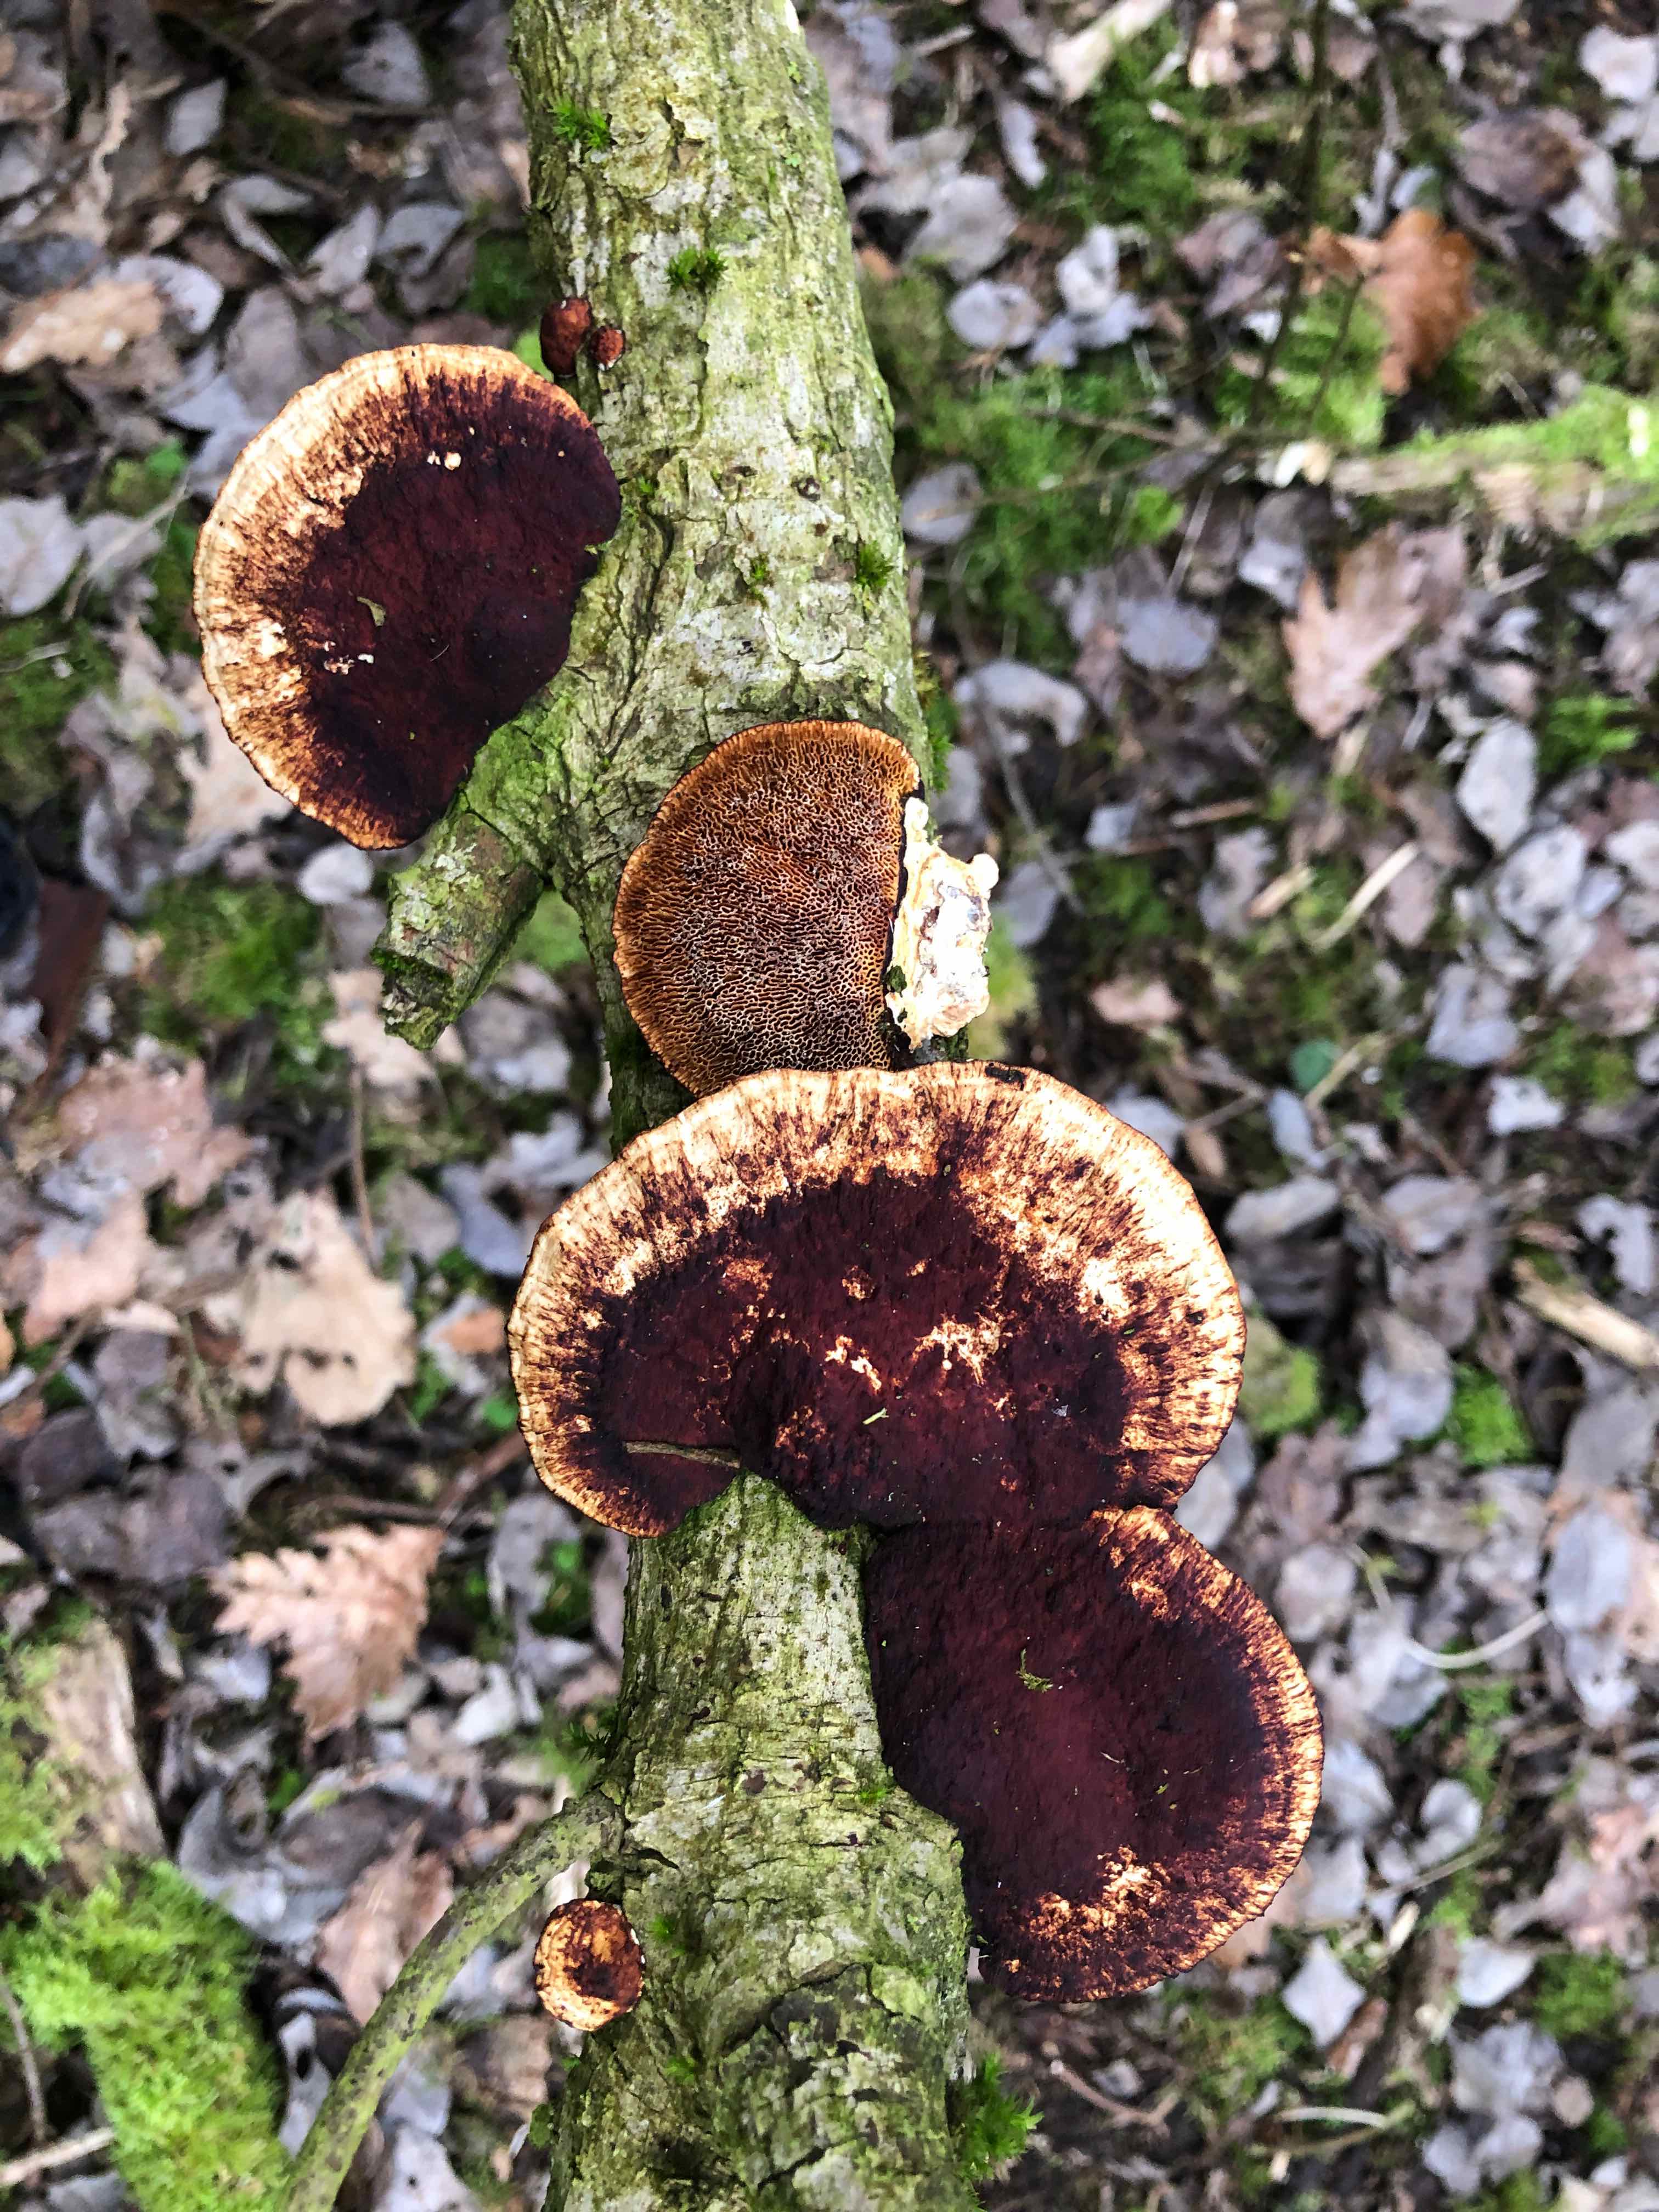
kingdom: Fungi
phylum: Basidiomycota
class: Agaricomycetes
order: Polyporales
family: Polyporaceae
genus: Daedaleopsis
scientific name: Daedaleopsis confragosa
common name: rødmende læderporesvamp
